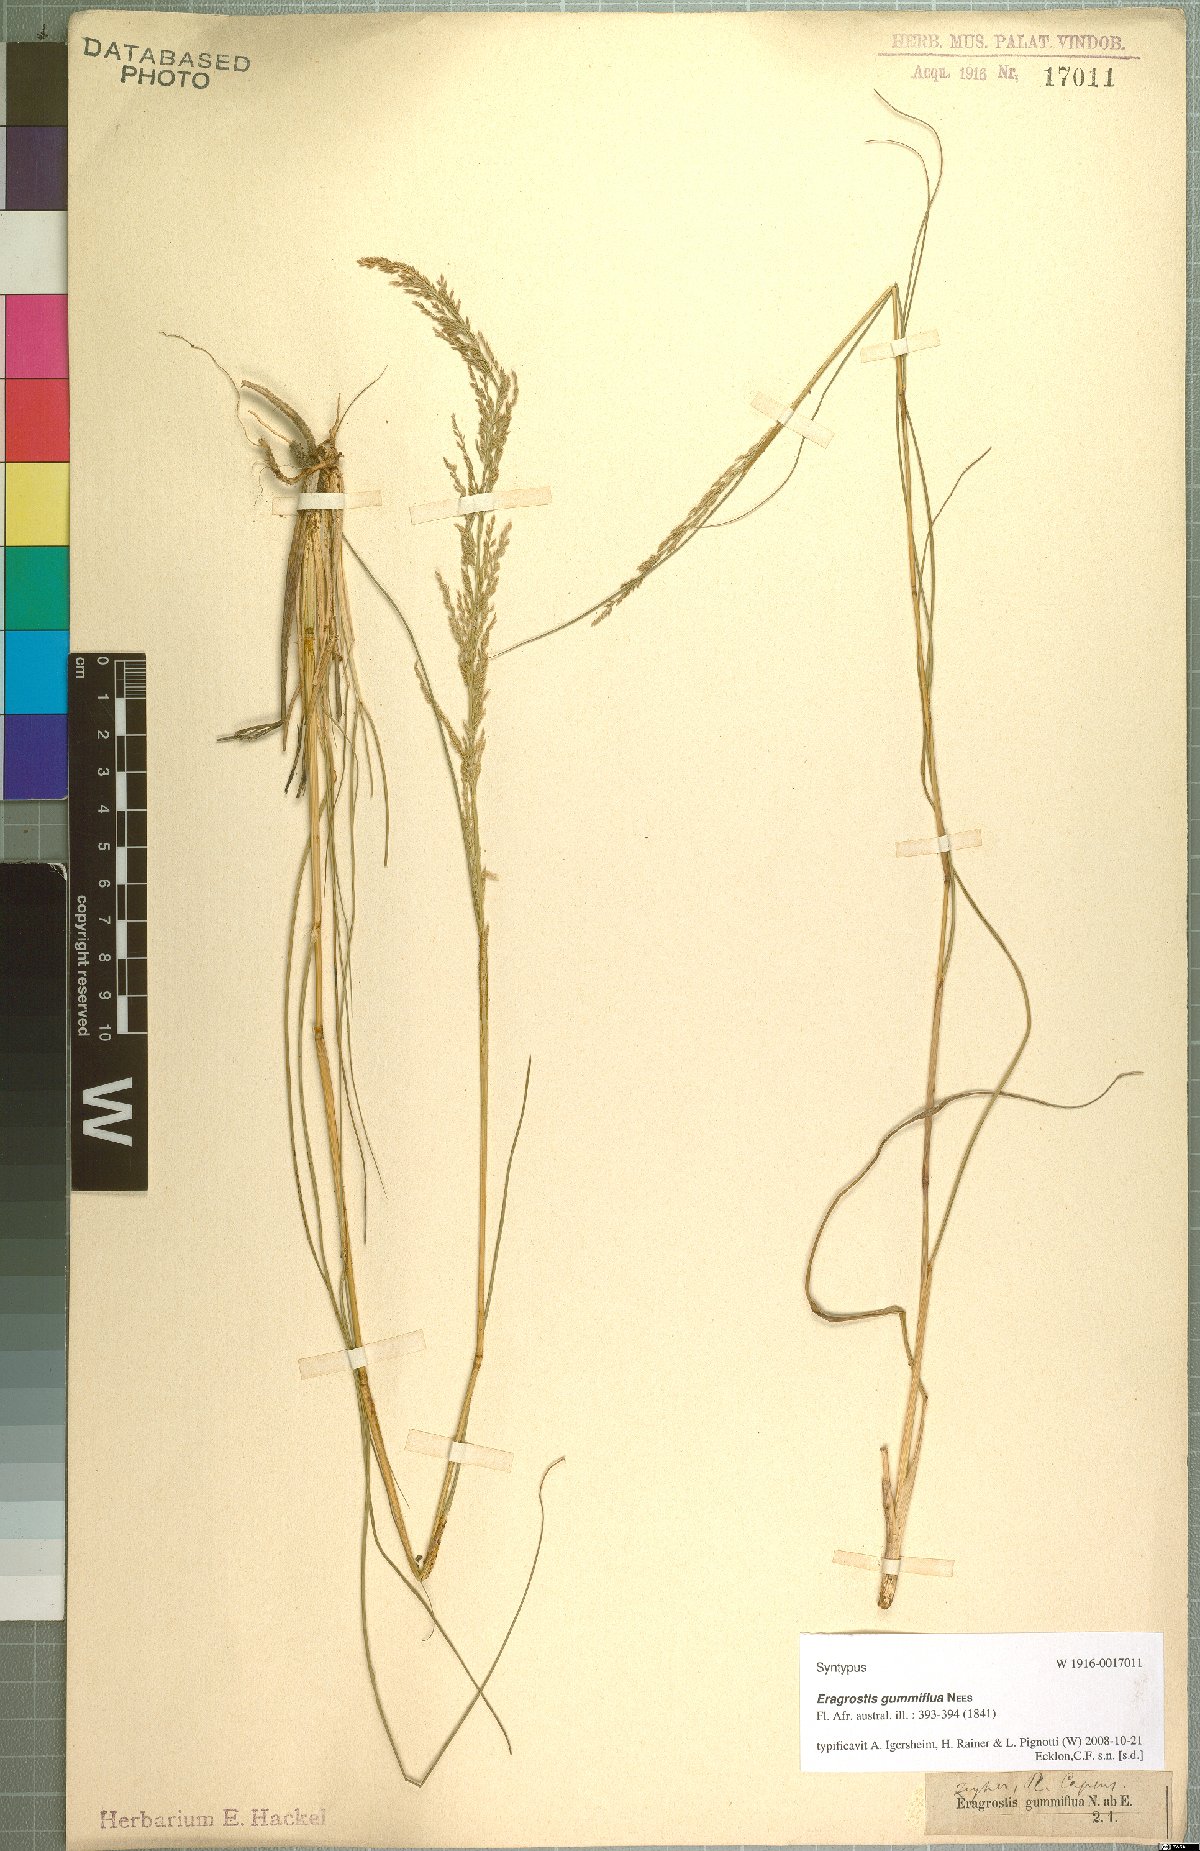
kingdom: Plantae
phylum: Tracheophyta
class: Liliopsida
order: Poales
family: Poaceae
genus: Eragrostis
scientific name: Eragrostis gummiflua
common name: Gum grass
